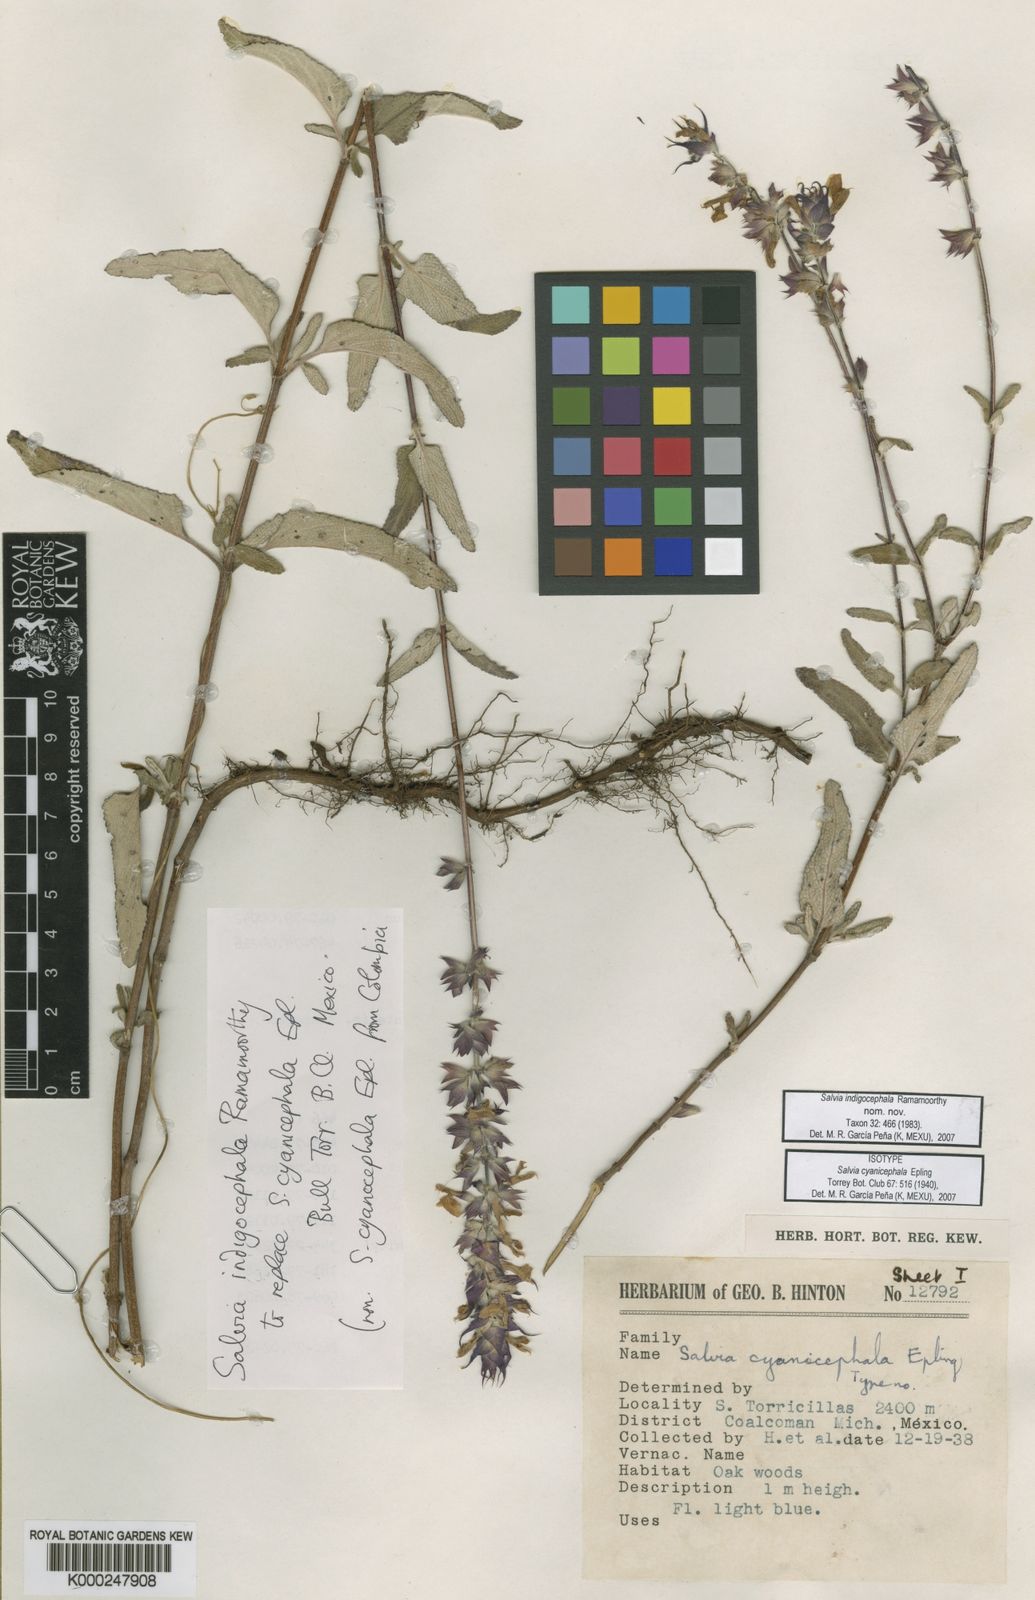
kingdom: Plantae
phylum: Tracheophyta
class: Magnoliopsida
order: Lamiales
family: Lamiaceae
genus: Salvia
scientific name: Salvia
